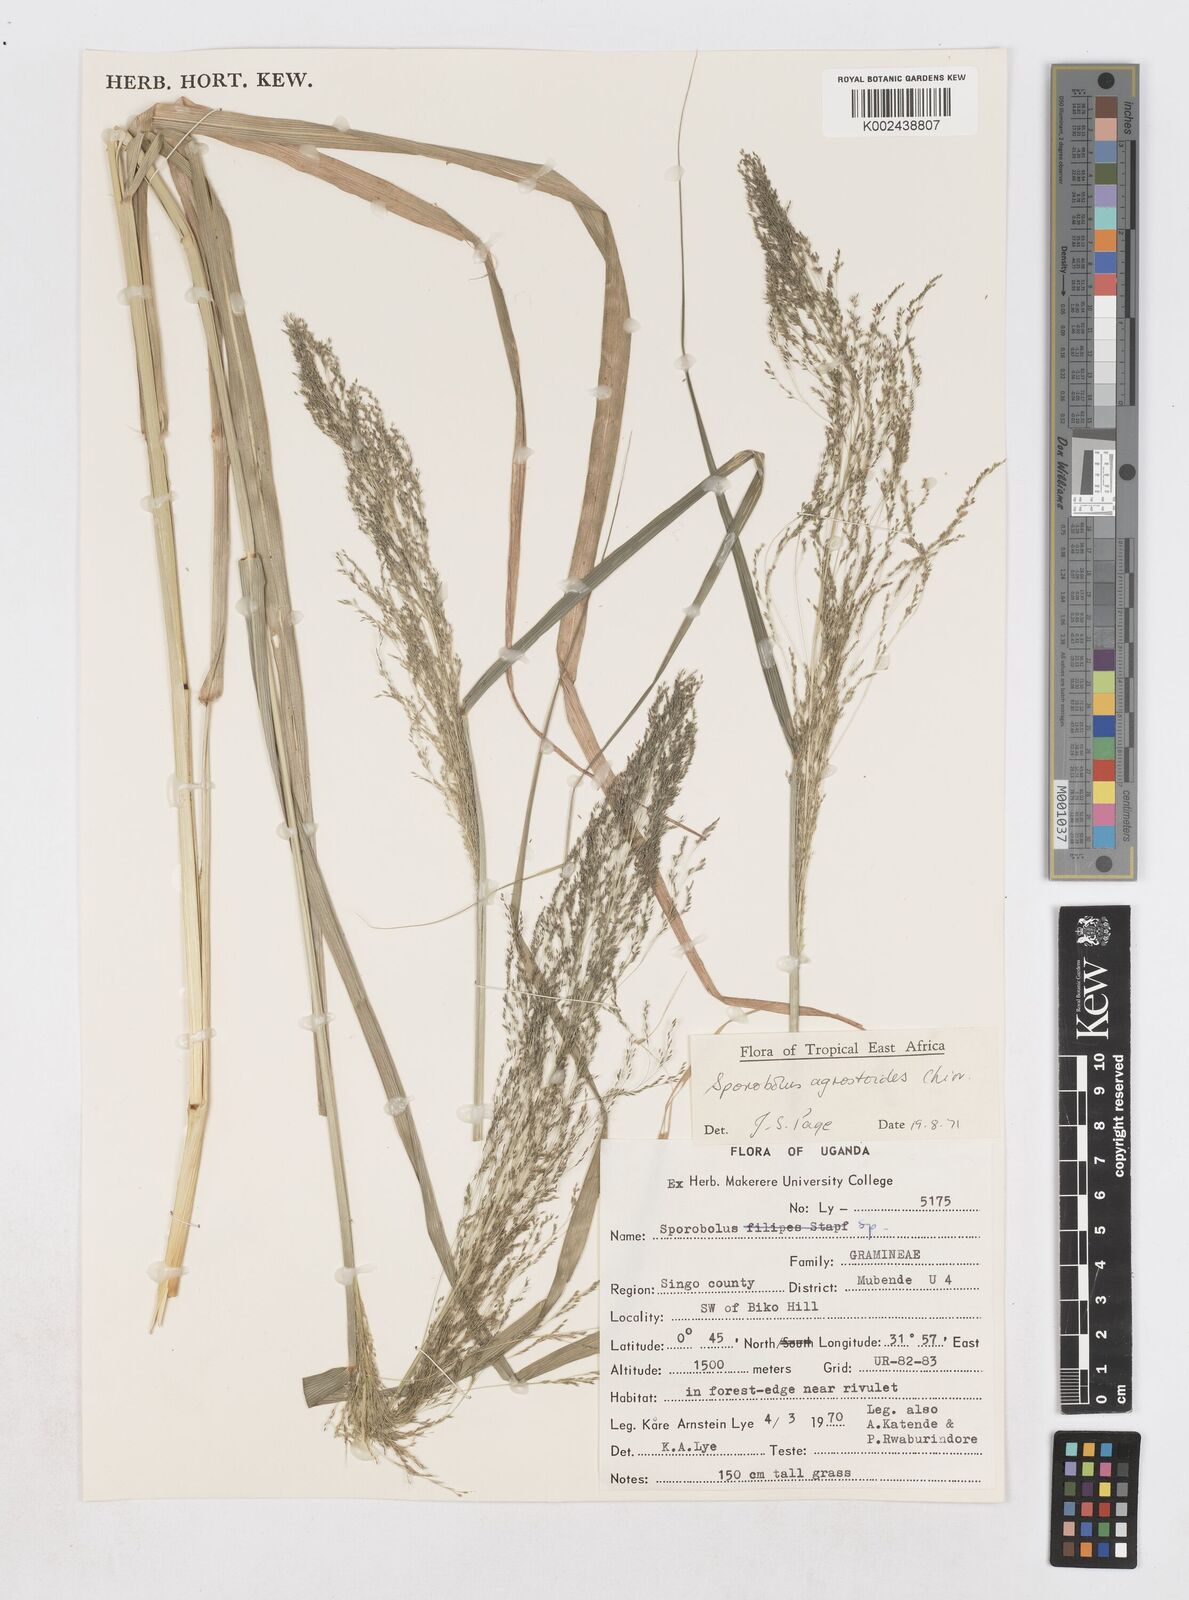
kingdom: Plantae
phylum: Tracheophyta
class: Liliopsida
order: Poales
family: Poaceae
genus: Sporobolus
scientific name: Sporobolus agrostoides
